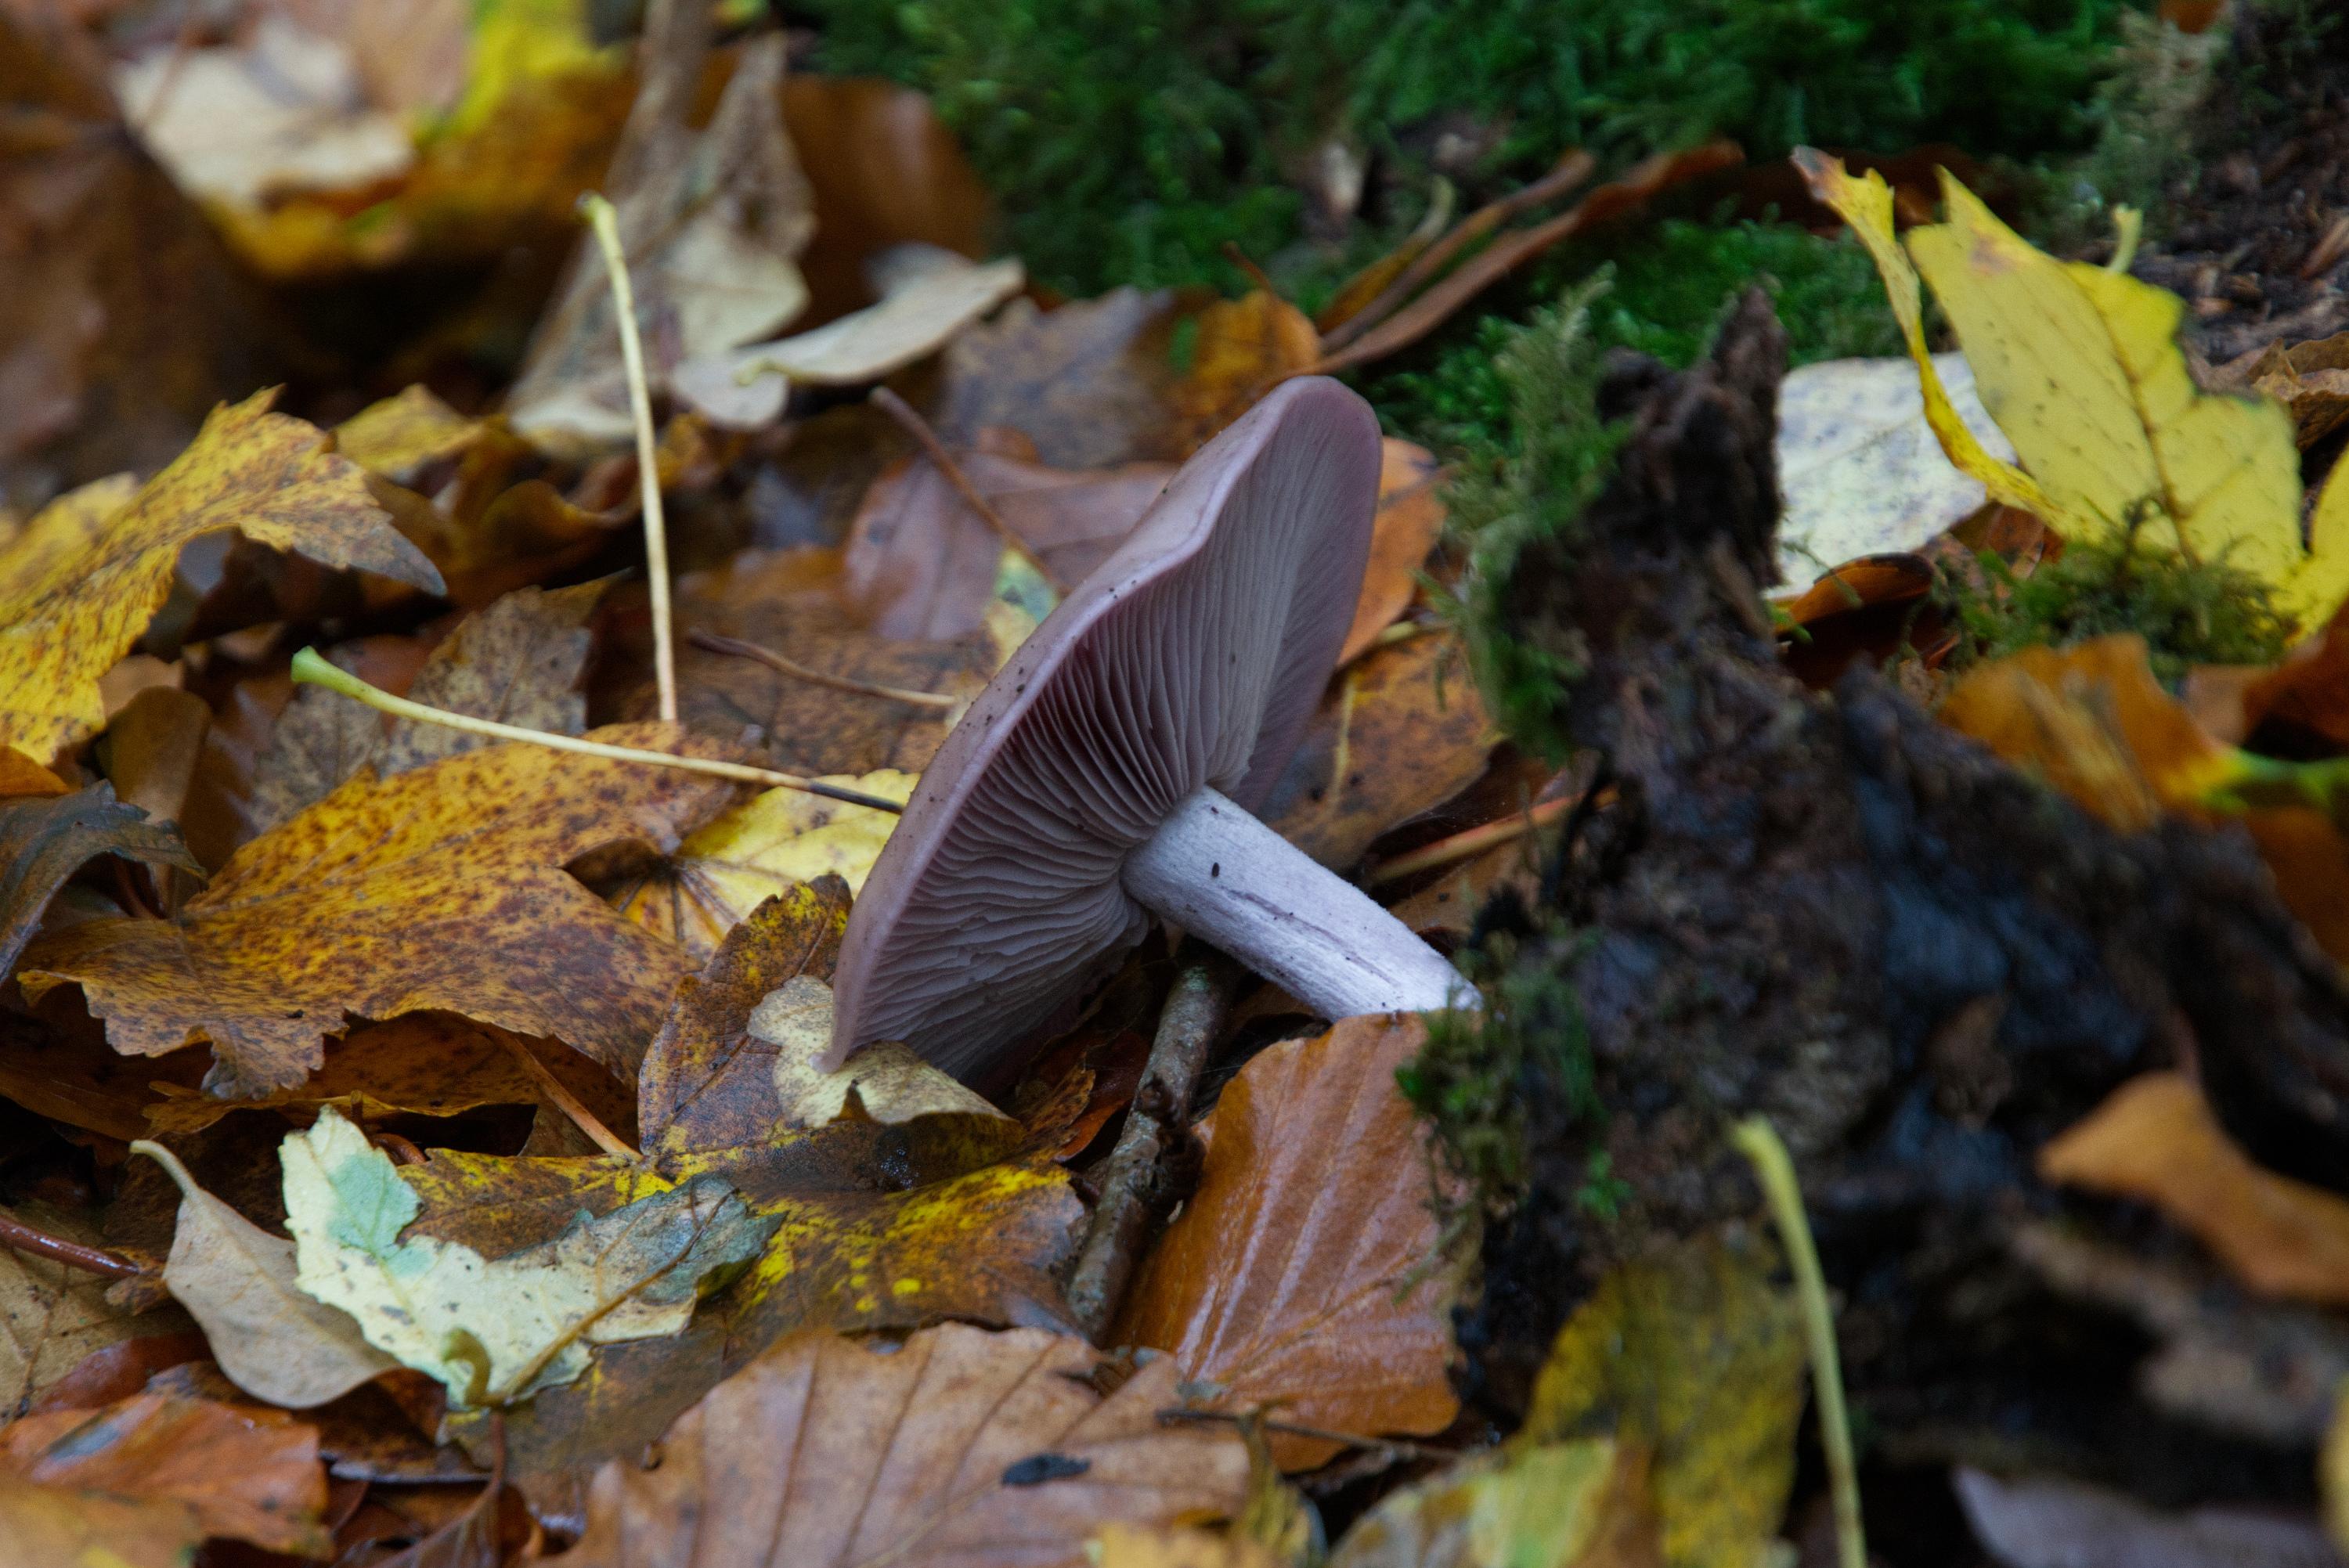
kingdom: Fungi
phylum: Basidiomycota
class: Agaricomycetes
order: Agaricales
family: Tricholomataceae
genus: Lepista
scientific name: Lepista nuda
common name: violet hekseringshat
